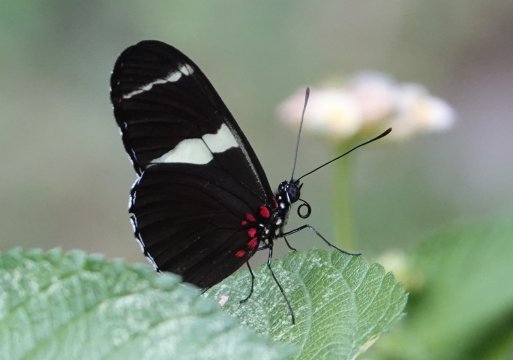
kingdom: Animalia
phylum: Arthropoda
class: Insecta
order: Lepidoptera
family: Nymphalidae
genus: Heliconius
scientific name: Heliconius sara
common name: Sara Longwing
